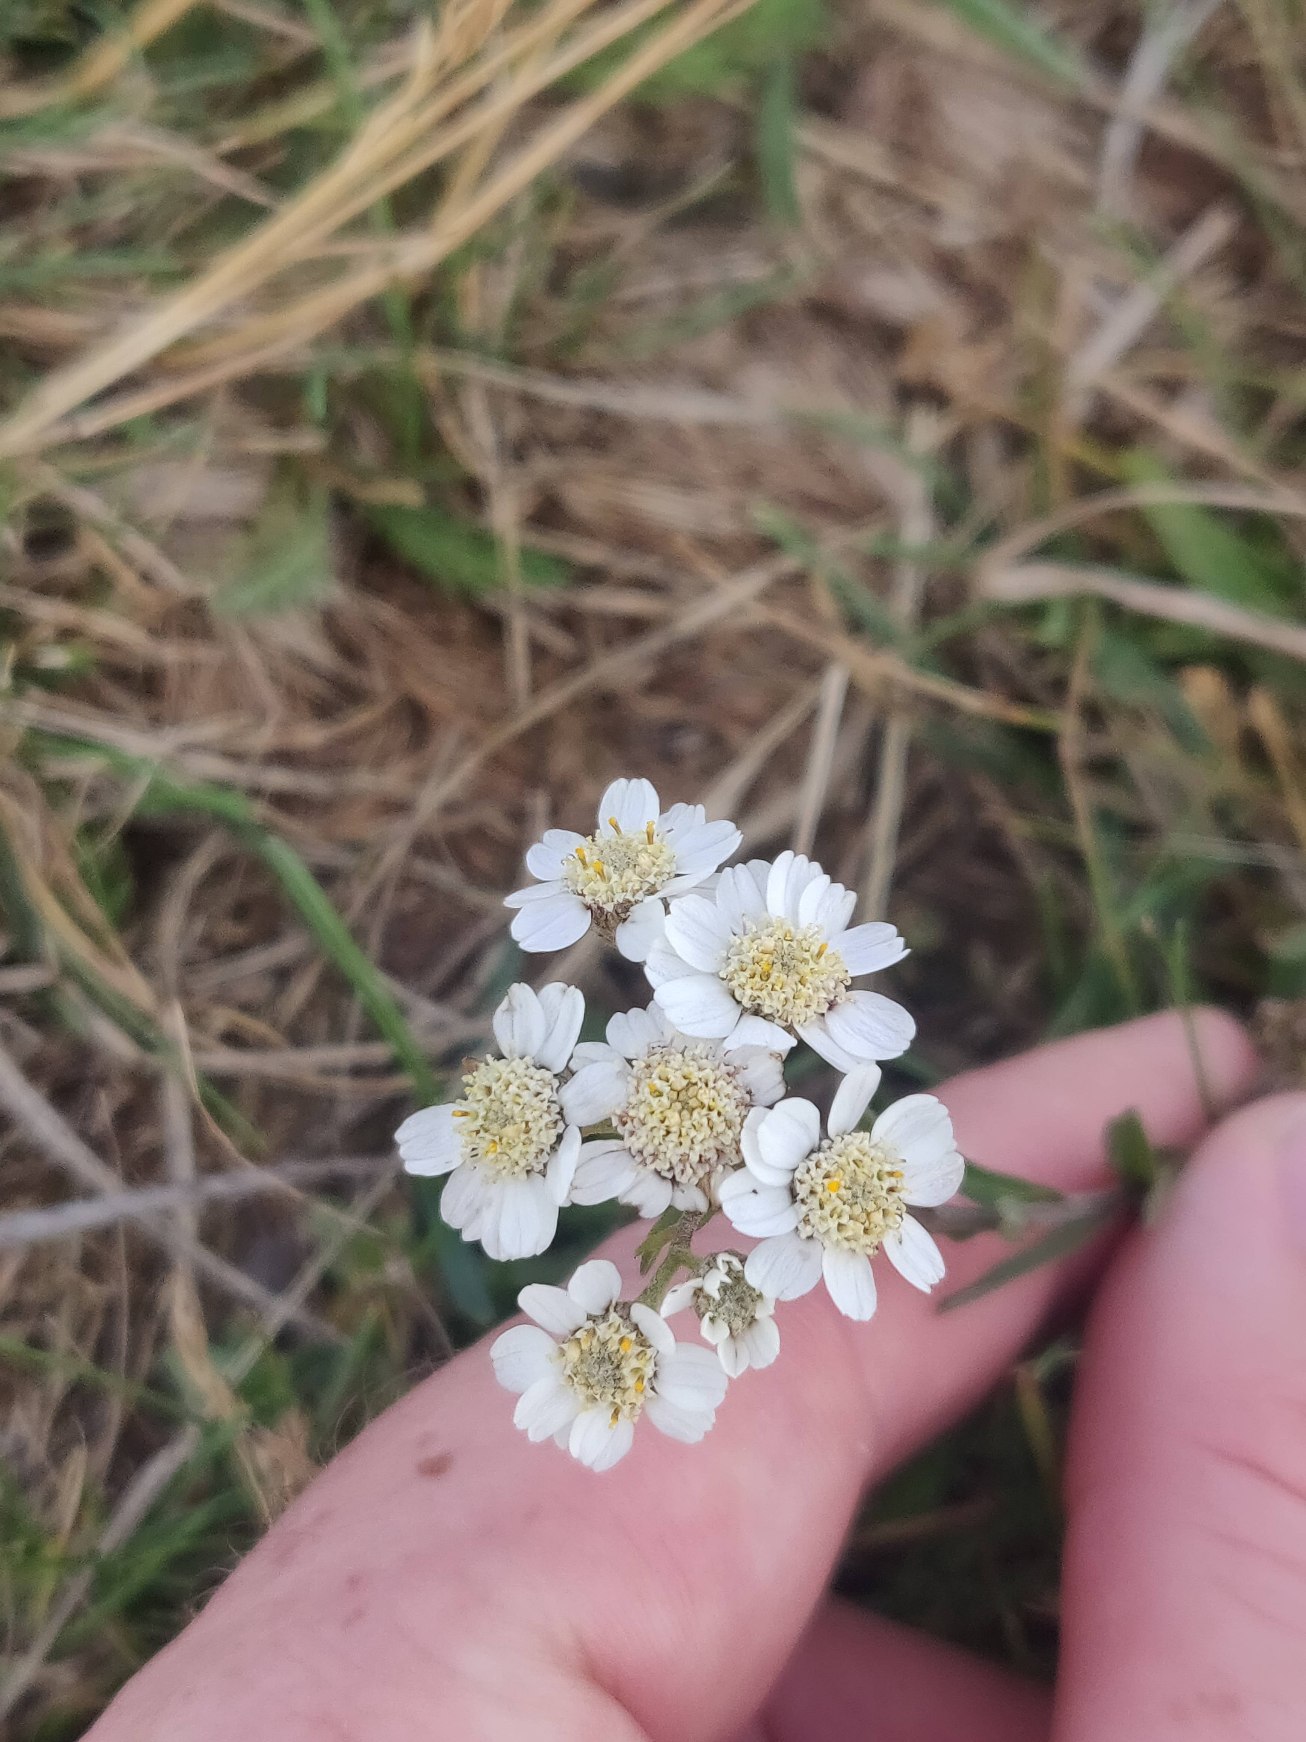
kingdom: Plantae
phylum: Tracheophyta
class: Magnoliopsida
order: Asterales
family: Asteraceae
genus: Achillea
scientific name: Achillea ptarmica
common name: Nyse-røllike
